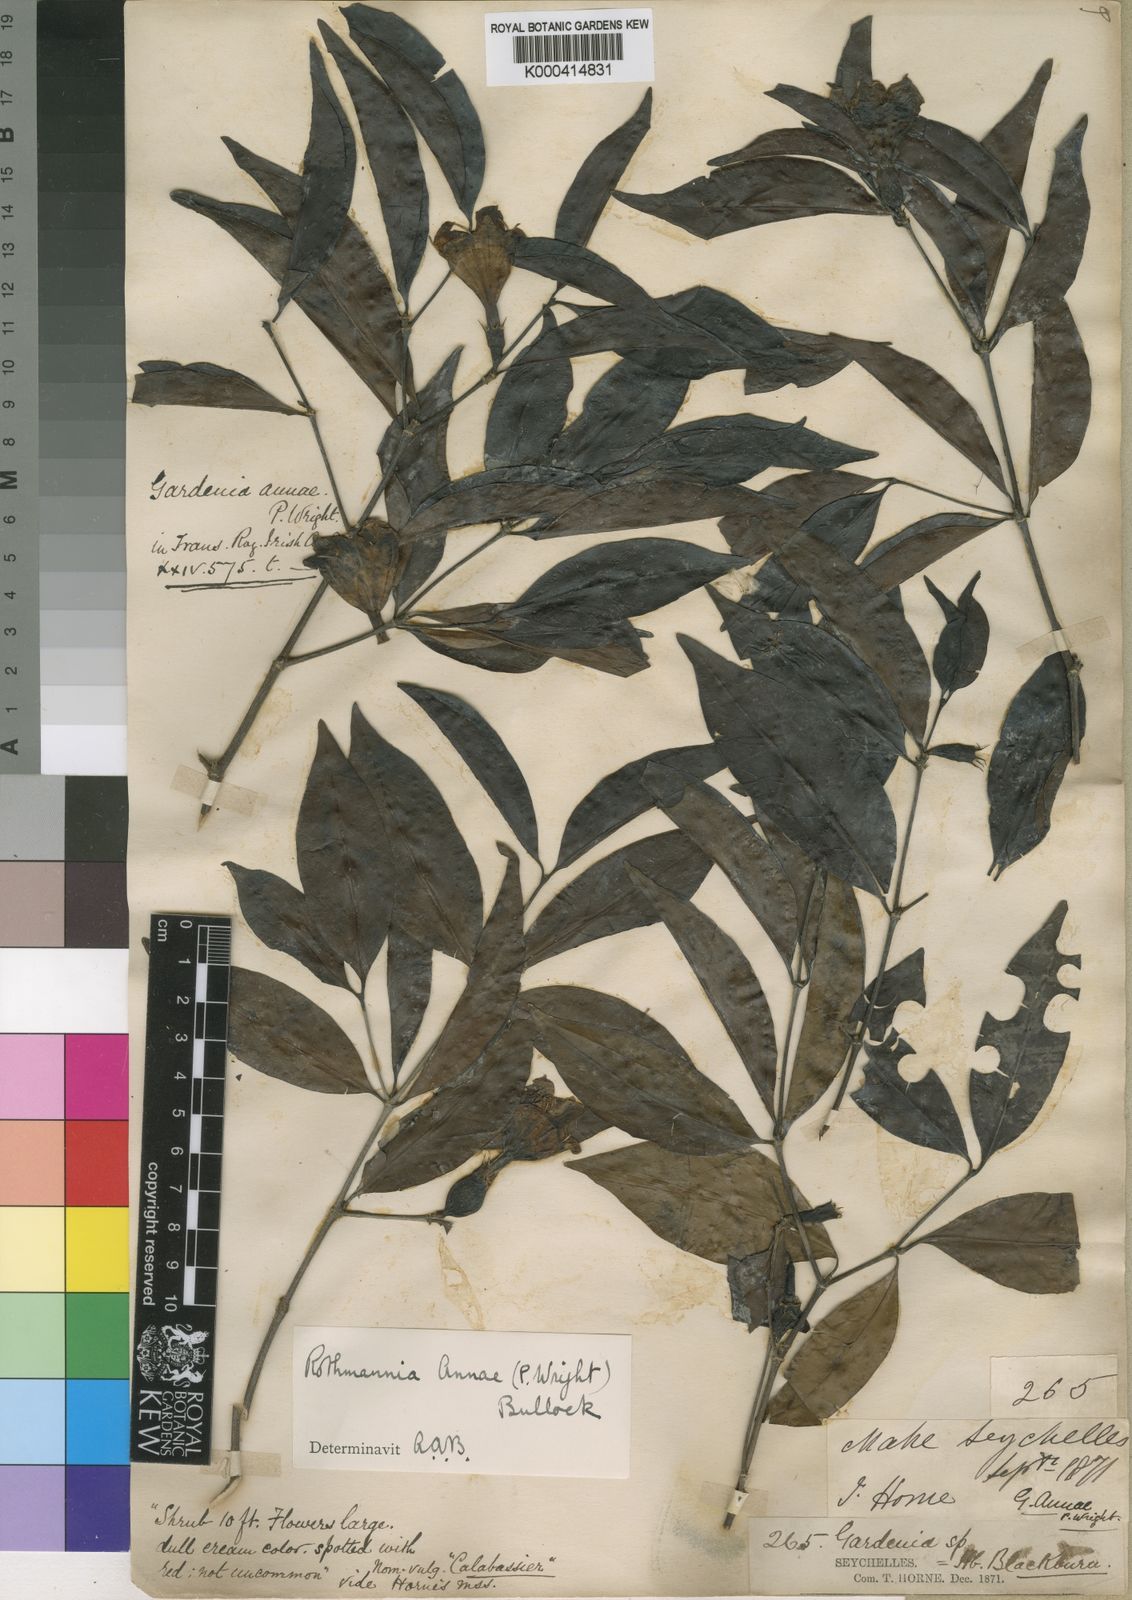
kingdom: Plantae
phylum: Tracheophyta
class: Magnoliopsida
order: Gentianales
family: Rubiaceae
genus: Rothmannia
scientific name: Rothmannia annae
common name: Wright's gardenia
